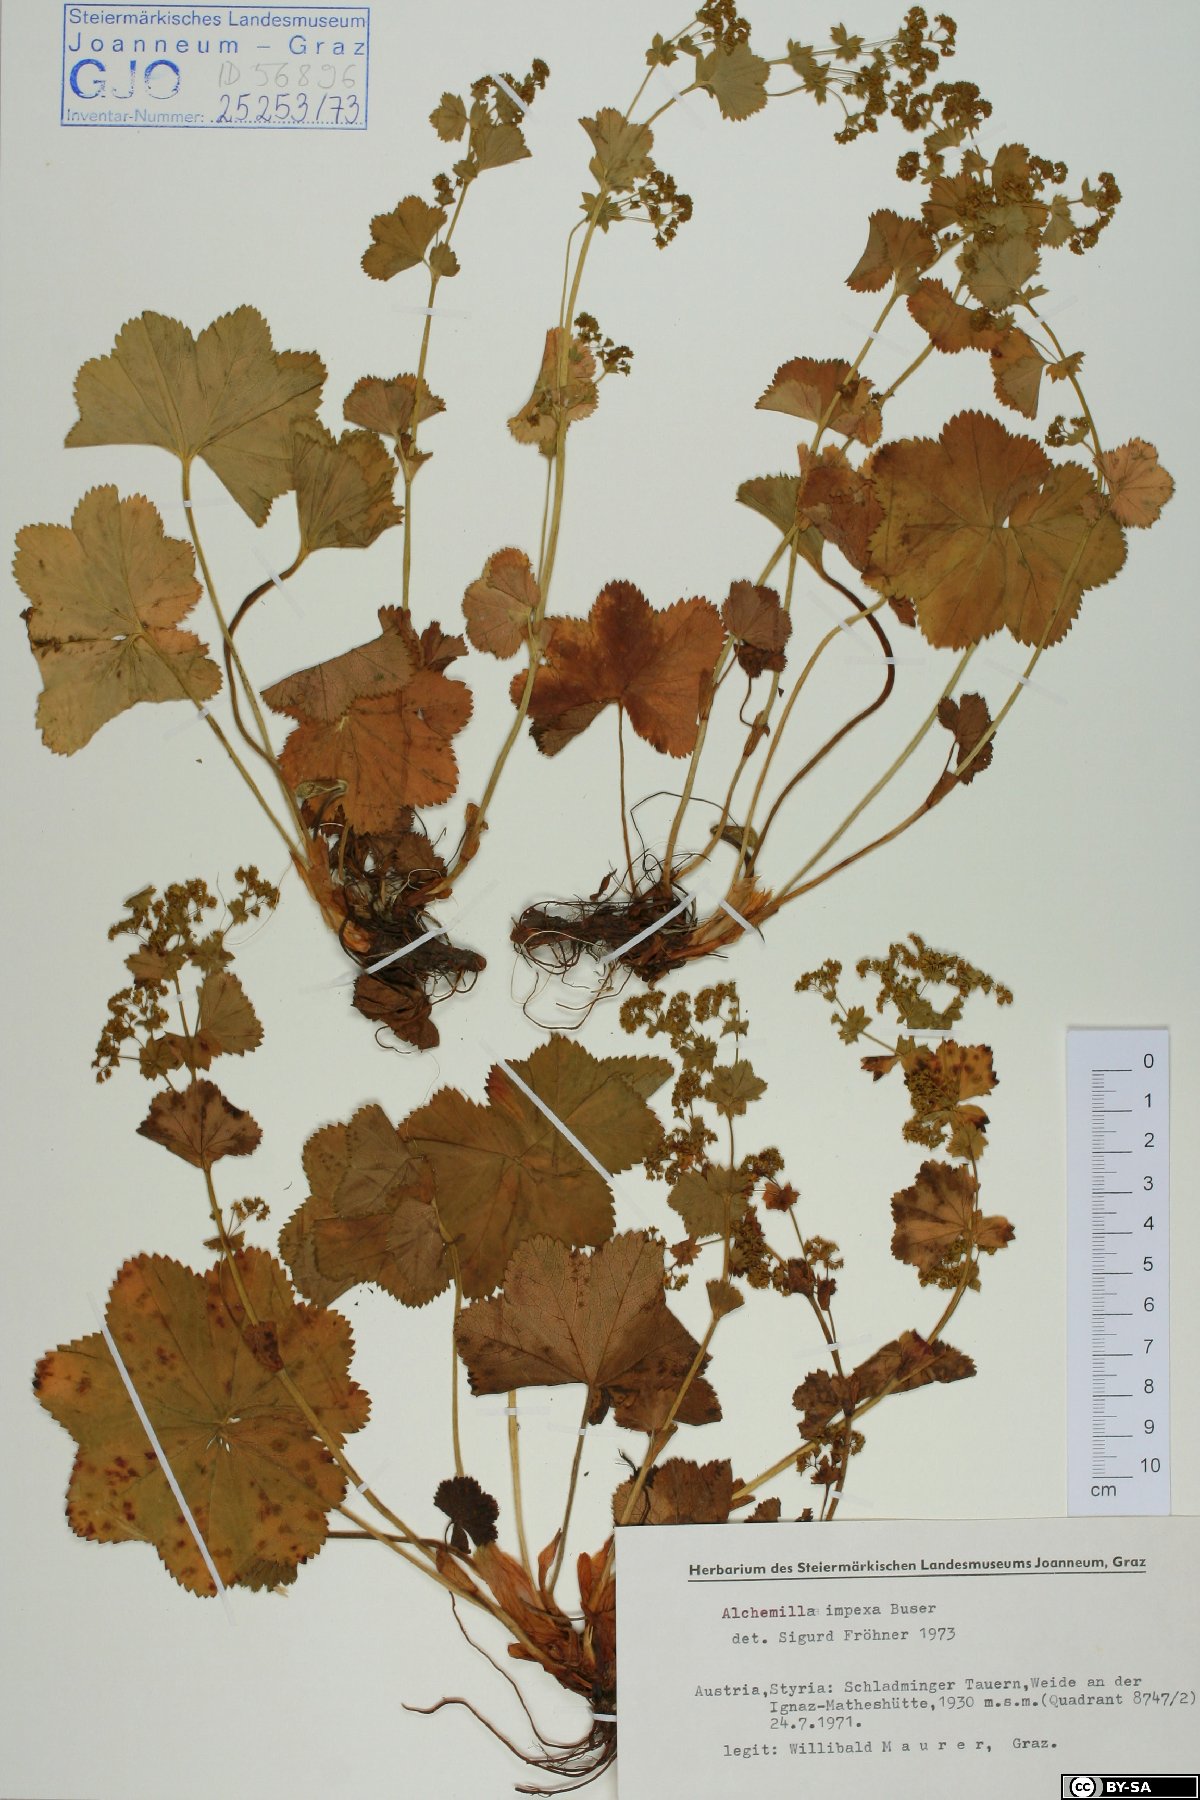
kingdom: Plantae
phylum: Tracheophyta
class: Magnoliopsida
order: Rosales
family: Rosaceae
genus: Alchemilla
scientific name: Alchemilla impexa
